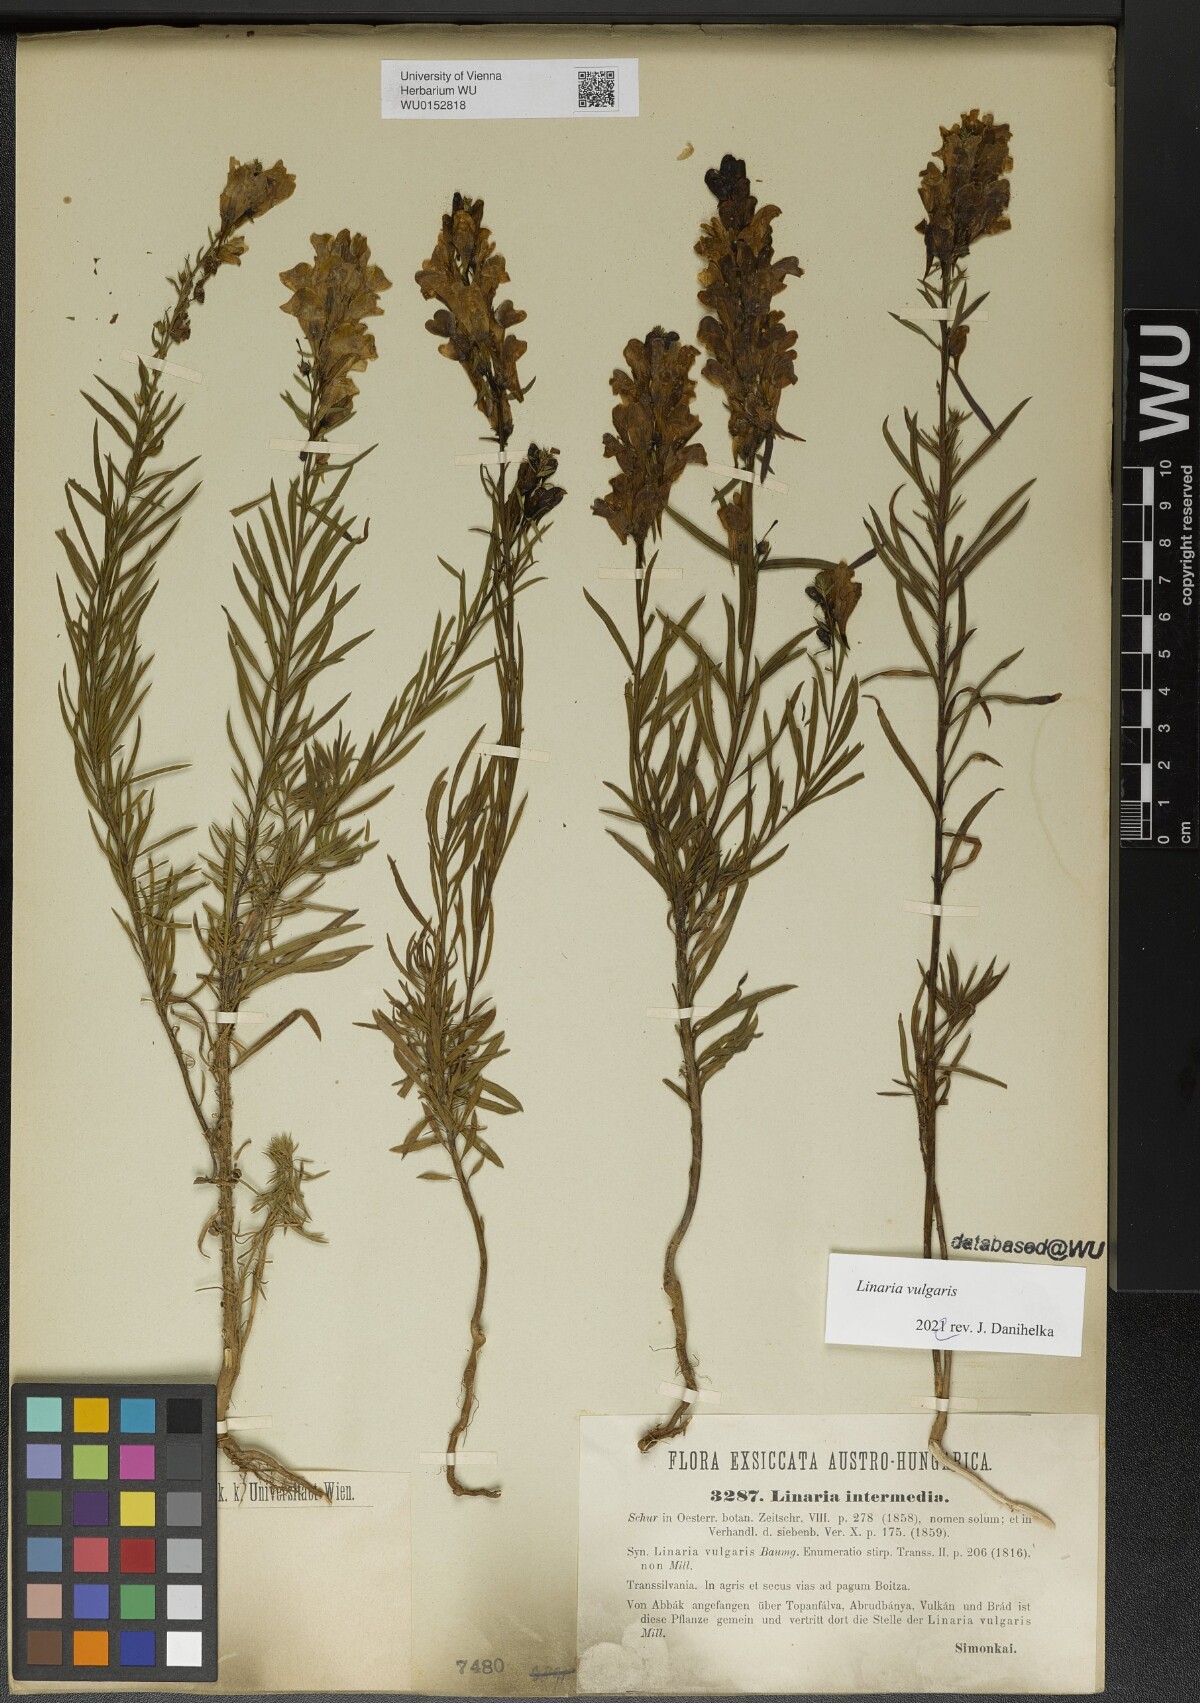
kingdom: Plantae
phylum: Tracheophyta
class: Magnoliopsida
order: Lamiales
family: Plantaginaceae
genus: Linaria
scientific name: Linaria vulgaris
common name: Butter and eggs
